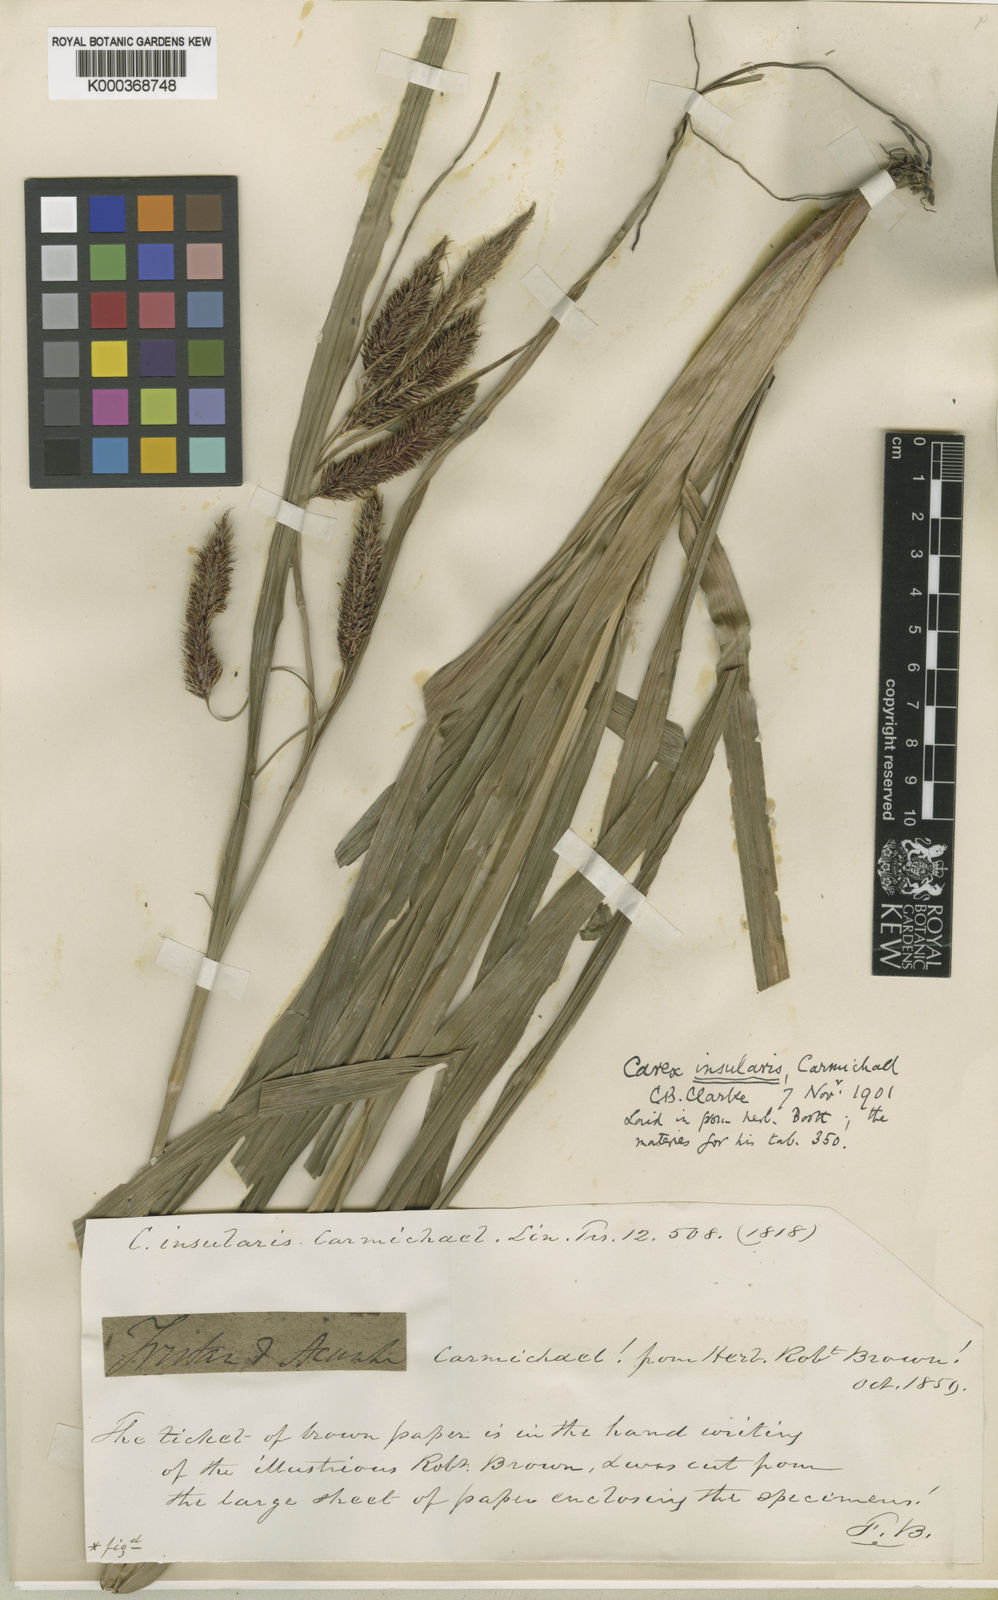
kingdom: Plantae
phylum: Tracheophyta
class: Liliopsida
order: Poales
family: Cyperaceae
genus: Carex
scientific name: Carex insularis
